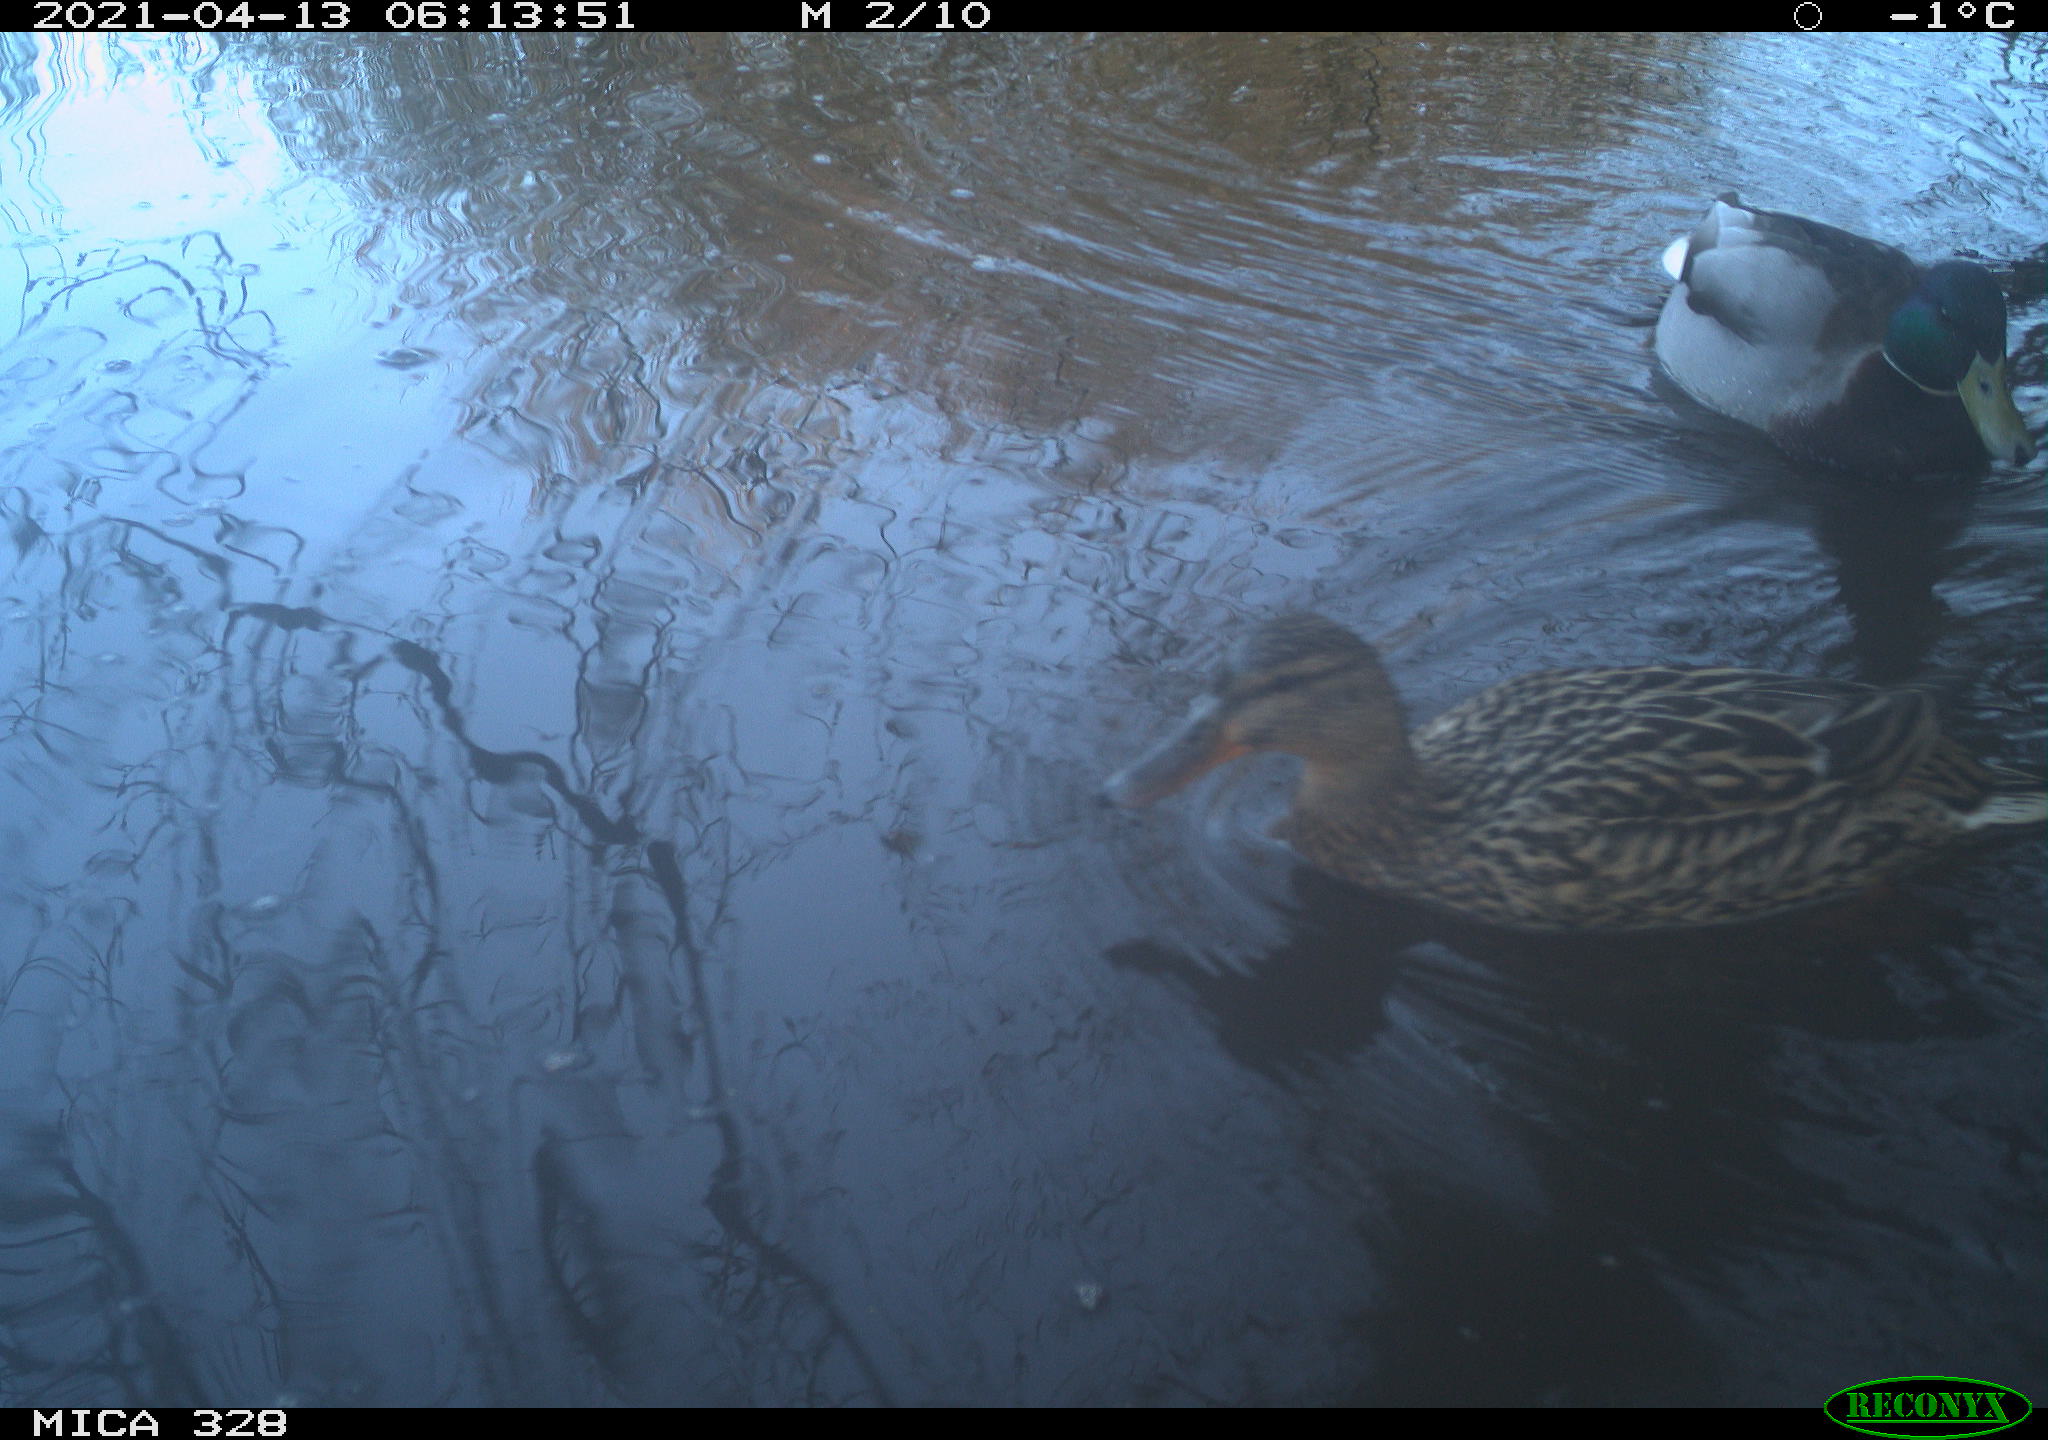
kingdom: Animalia
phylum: Chordata
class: Aves
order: Anseriformes
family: Anatidae
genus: Anas
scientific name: Anas platyrhynchos
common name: Mallard
